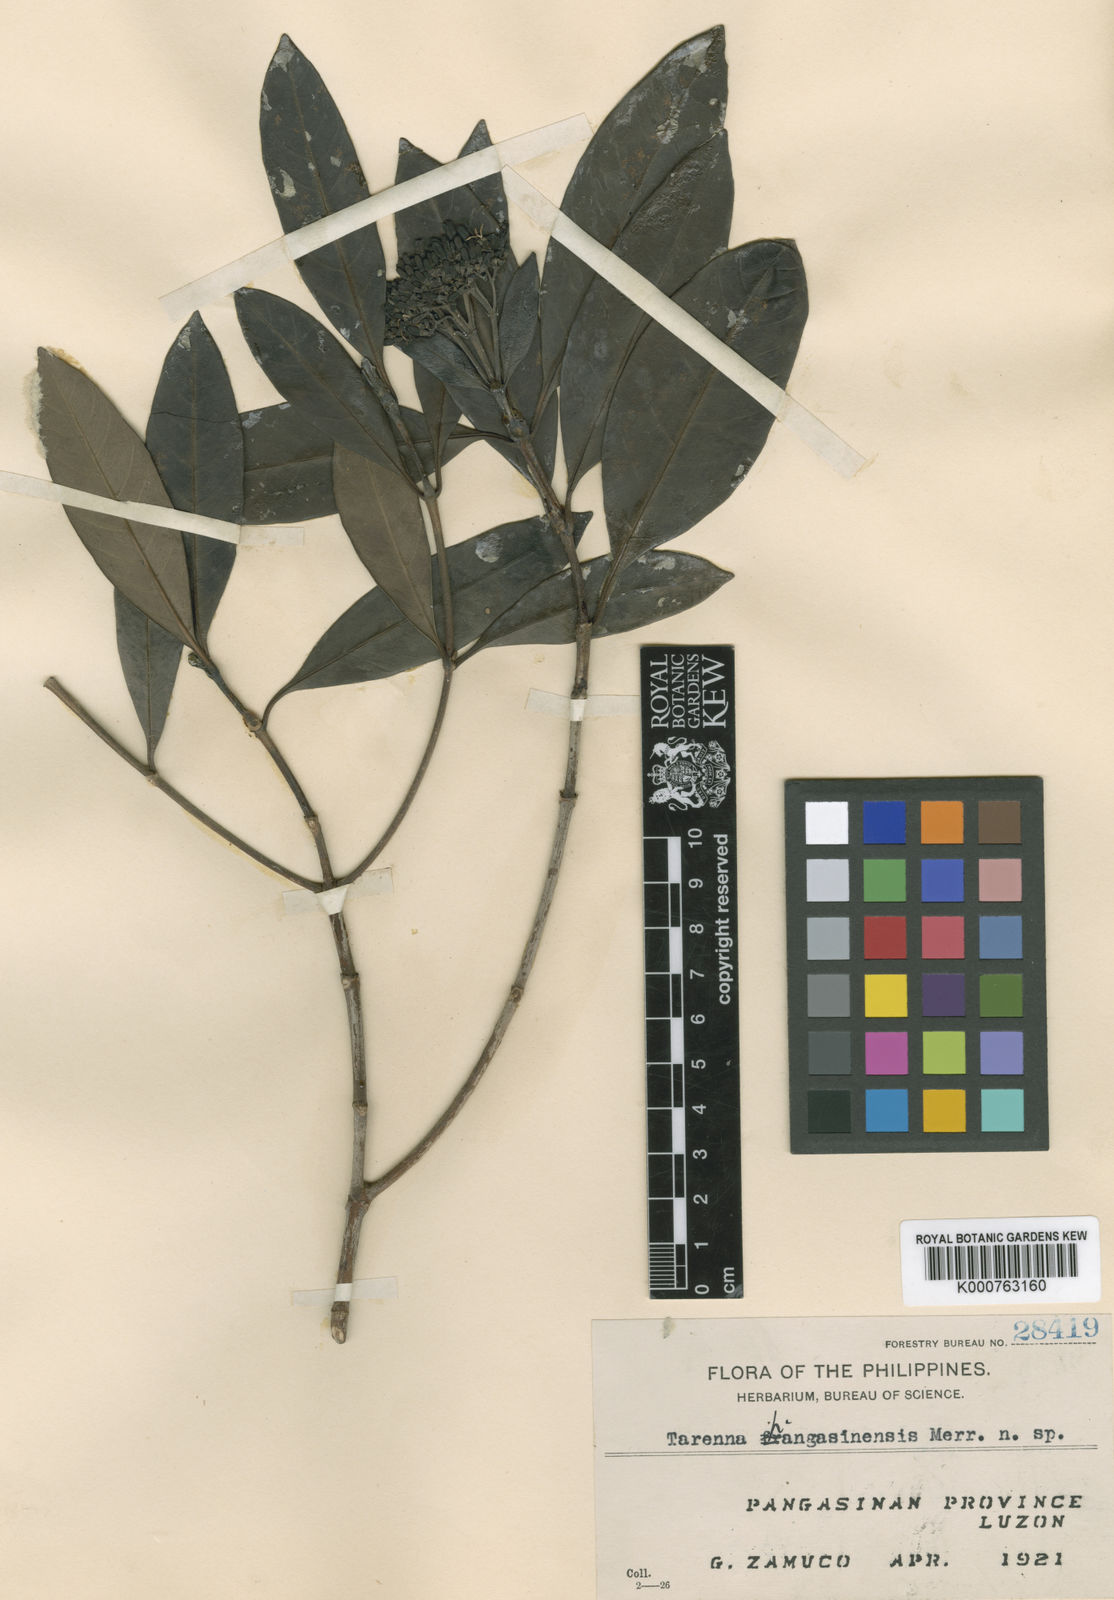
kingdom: Plantae
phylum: Tracheophyta
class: Magnoliopsida
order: Gentianales
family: Rubiaceae
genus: Tarenna
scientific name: Tarenna pangasinensis
